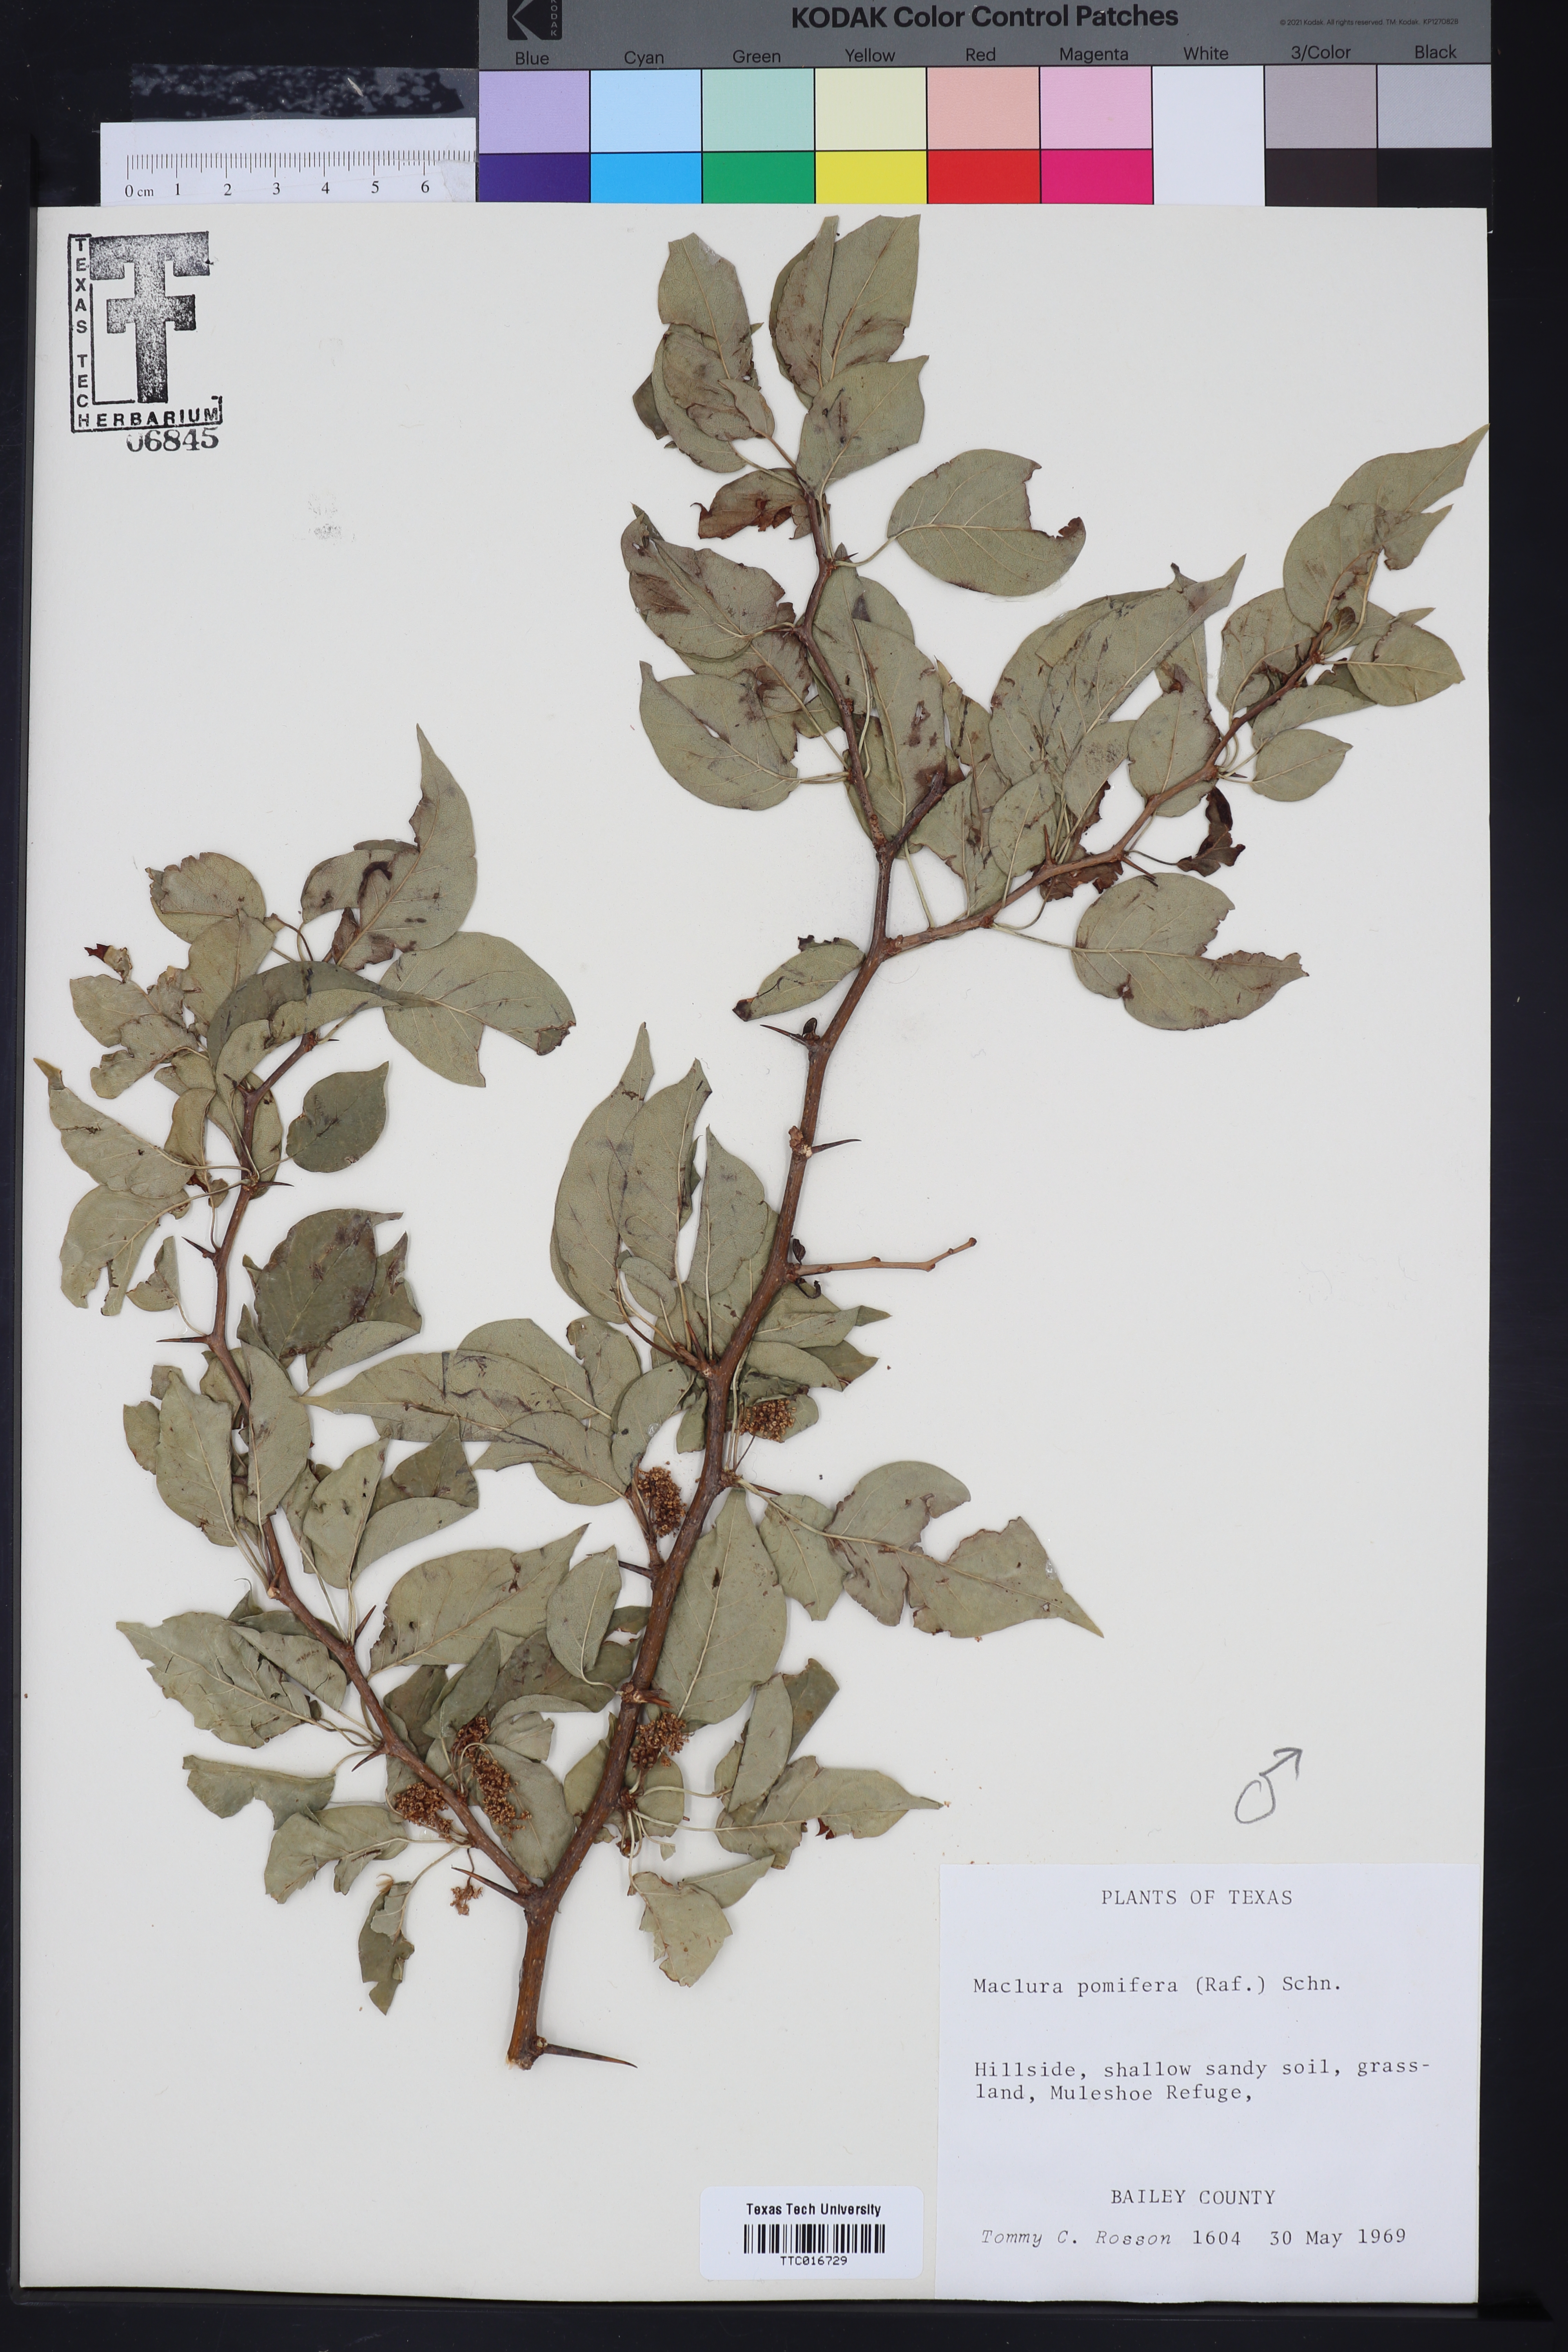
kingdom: Plantae
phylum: Tracheophyta
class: Magnoliopsida
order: Rosales
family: Moraceae
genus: Maclura
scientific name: Maclura pomifera
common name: Osage-orange
